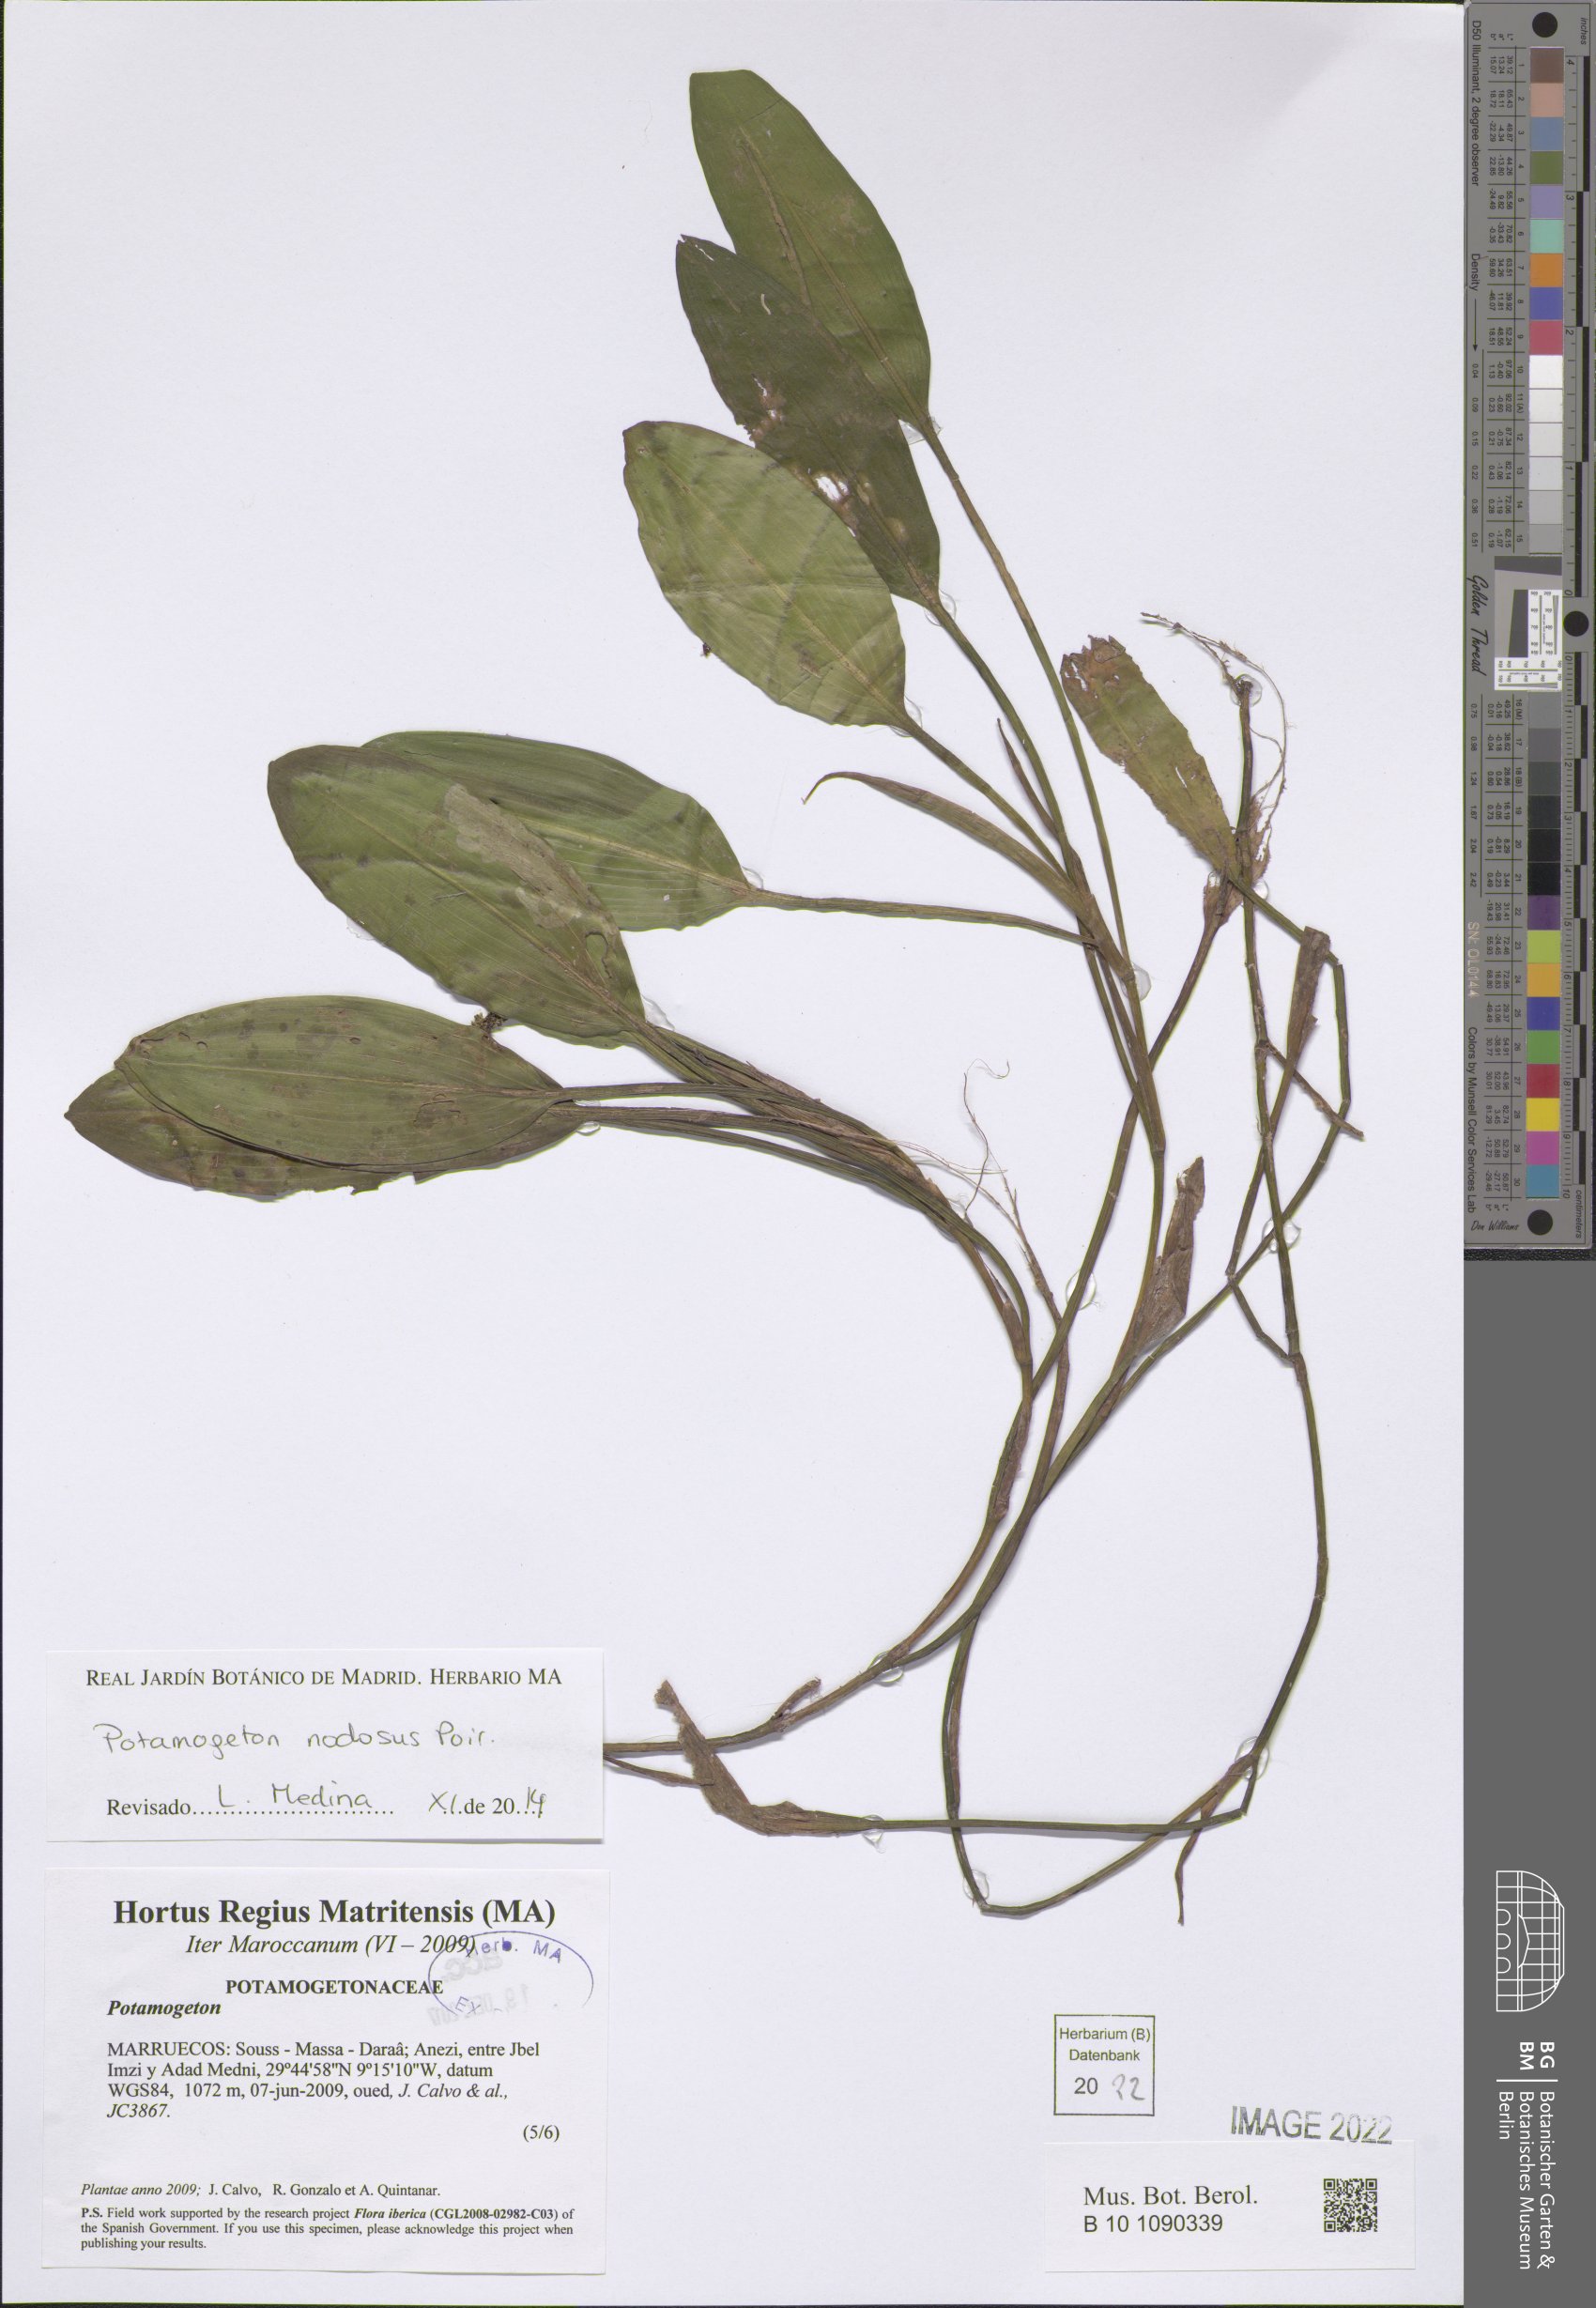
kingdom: Plantae
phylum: Tracheophyta
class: Liliopsida
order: Alismatales
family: Potamogetonaceae
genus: Potamogeton
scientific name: Potamogeton nodosus
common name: Loddon pondweed
